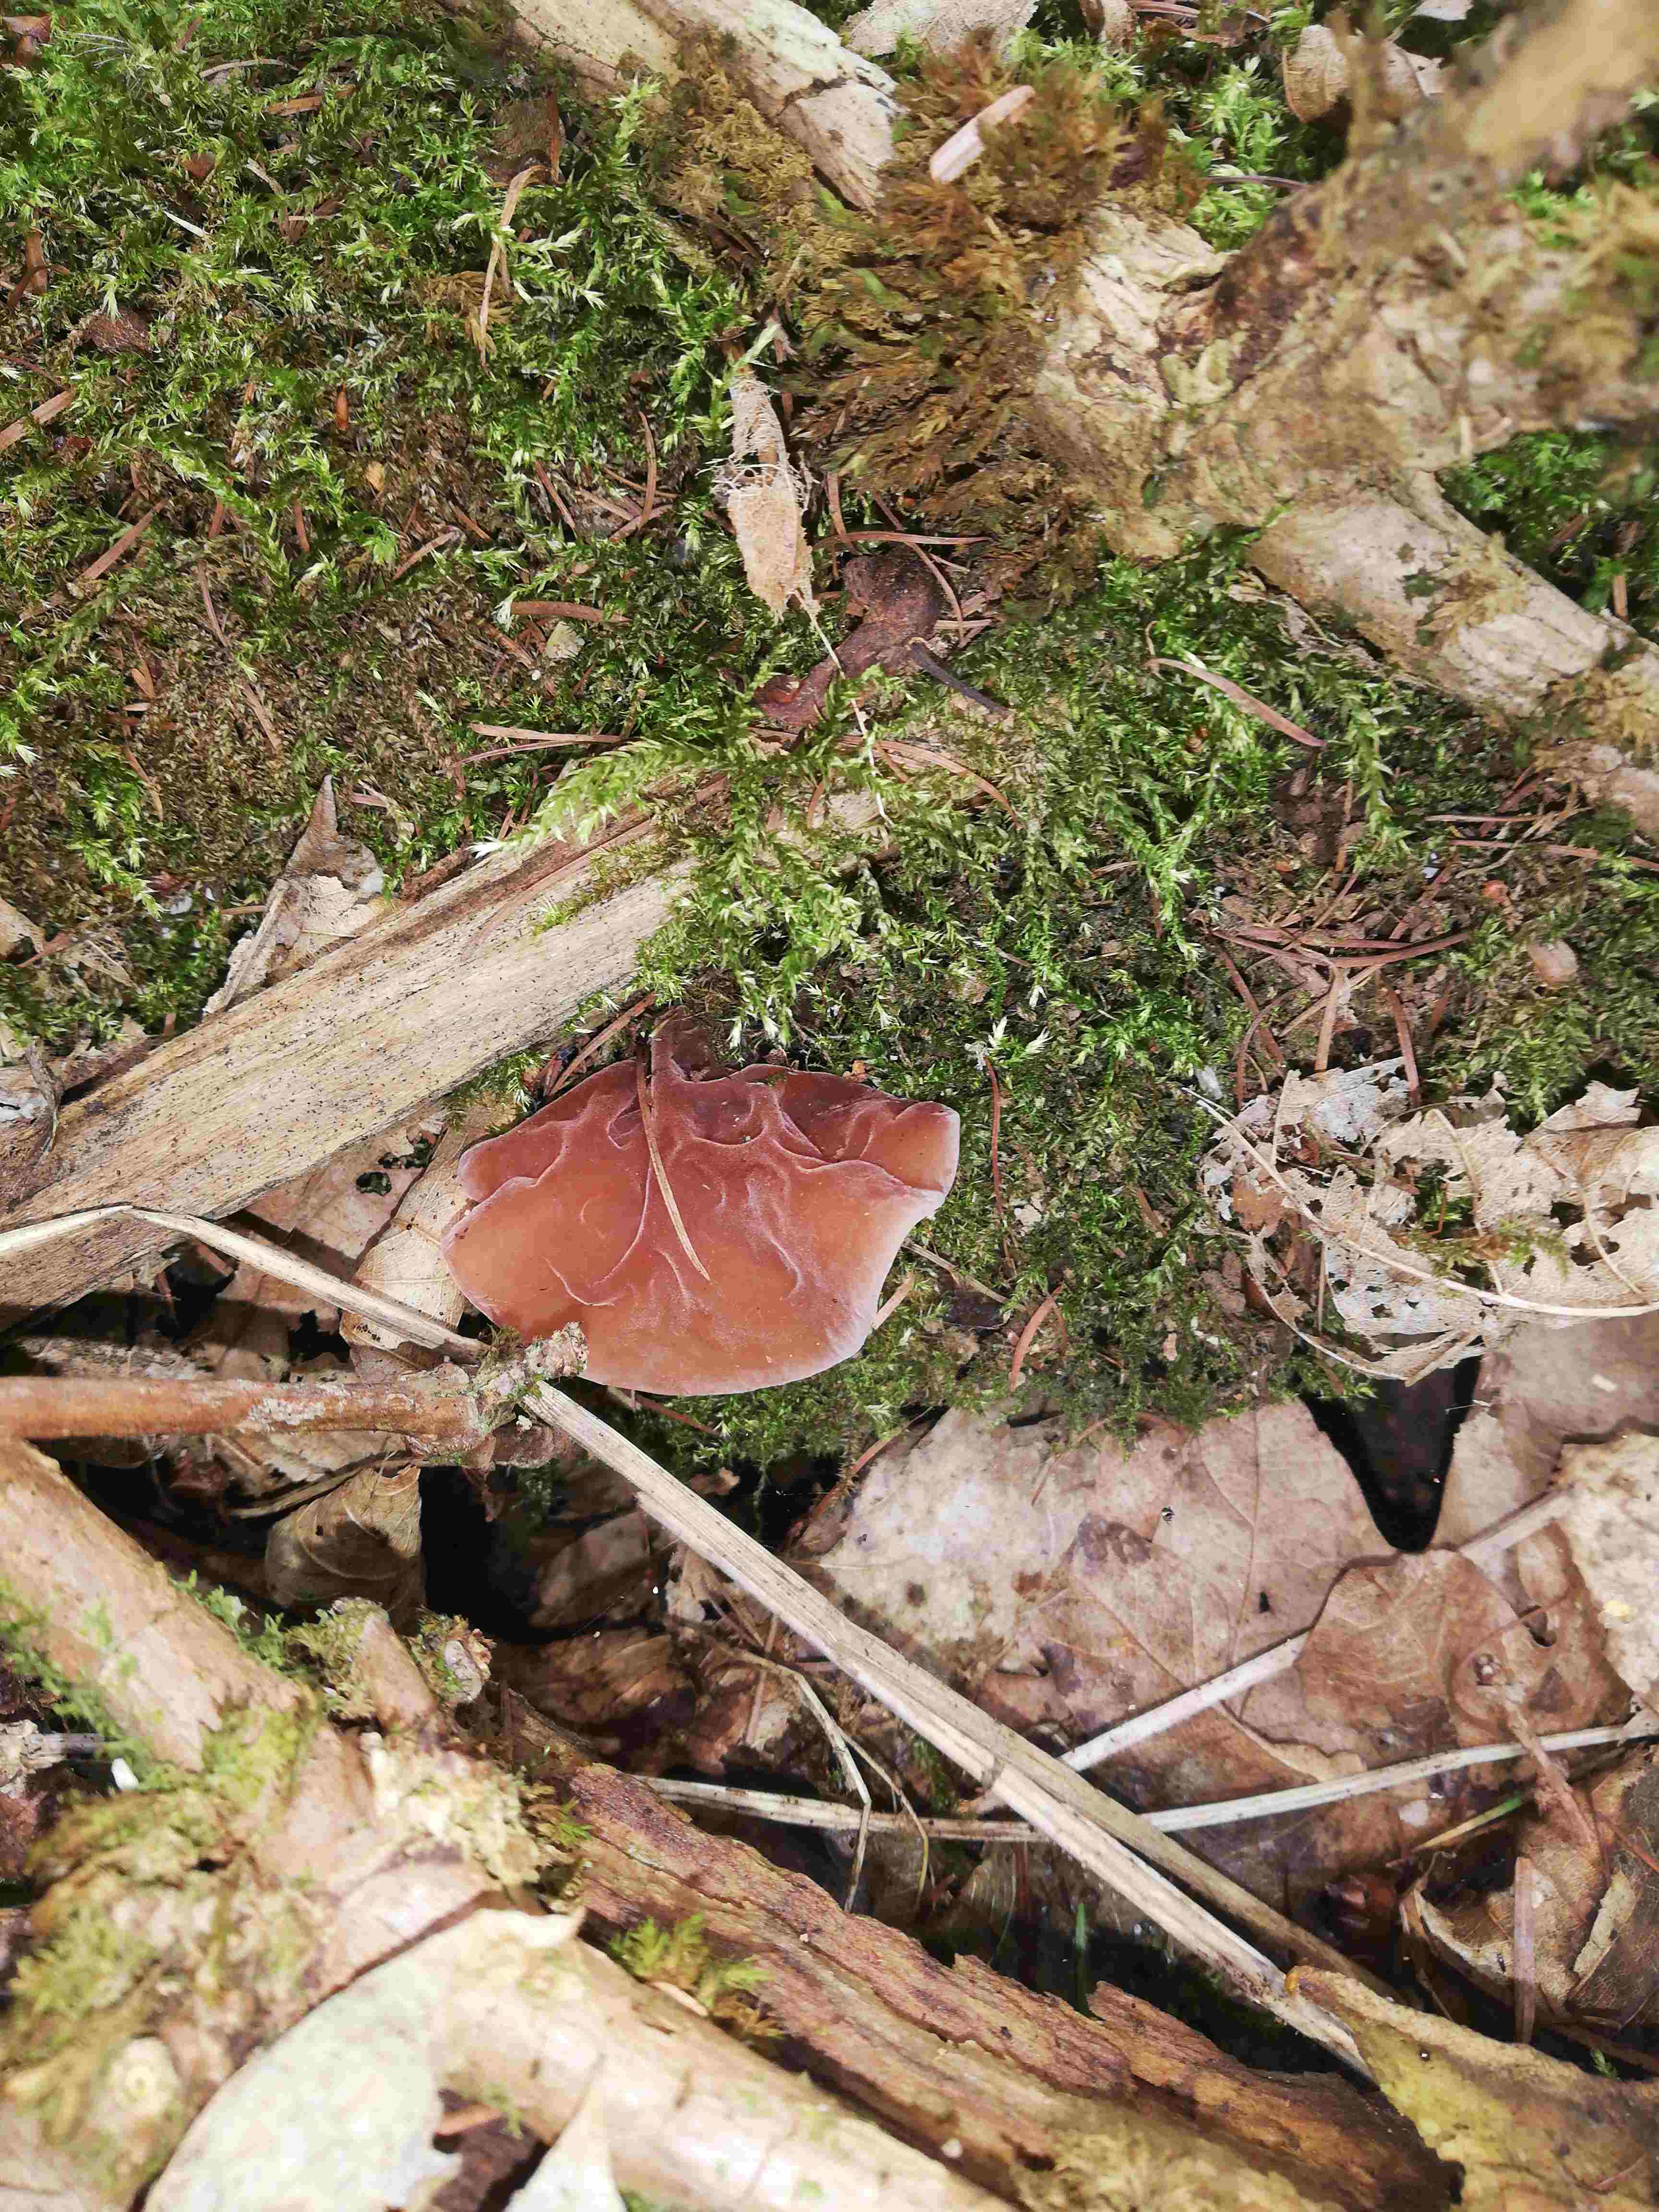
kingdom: Fungi
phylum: Basidiomycota
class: Agaricomycetes
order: Auriculariales
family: Auriculariaceae
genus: Auricularia
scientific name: Auricularia auricula-judae
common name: almindelig judasøre
